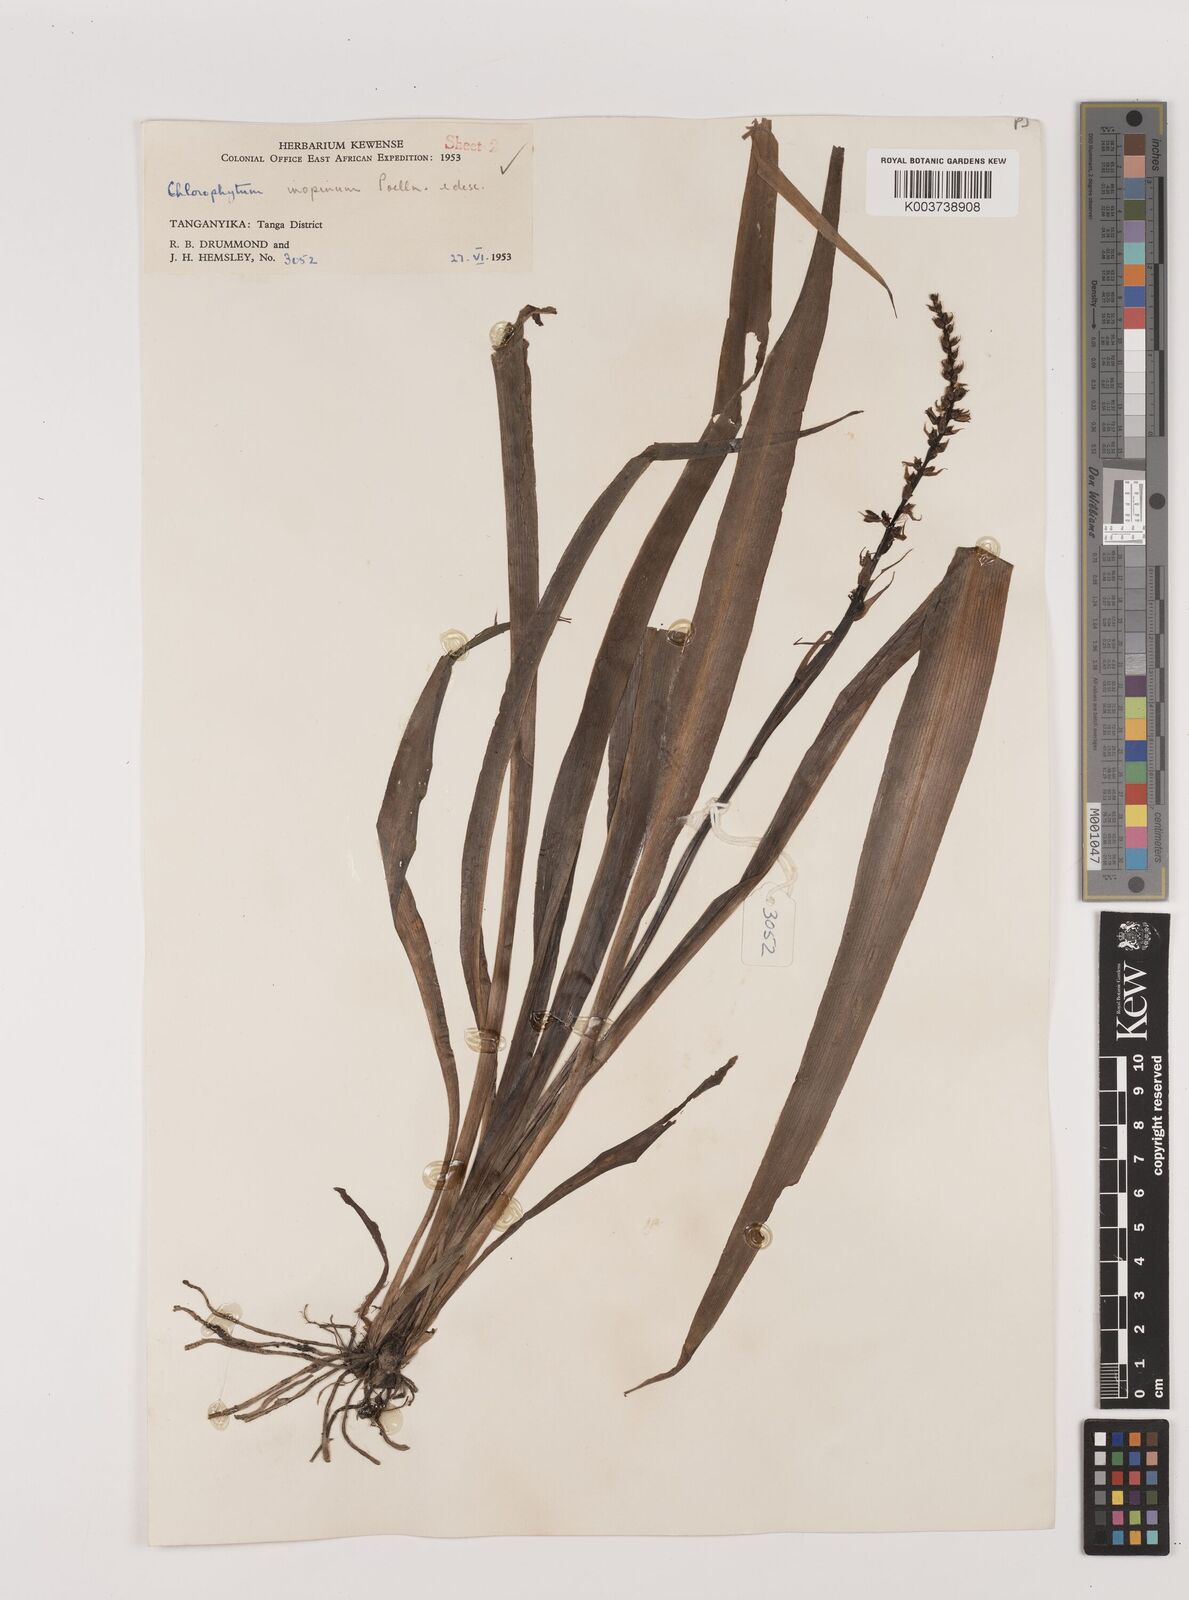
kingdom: Plantae
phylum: Tracheophyta
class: Liliopsida
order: Asparagales
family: Asparagaceae
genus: Chlorophytum
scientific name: Chlorophytum comosum
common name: Spider plant
